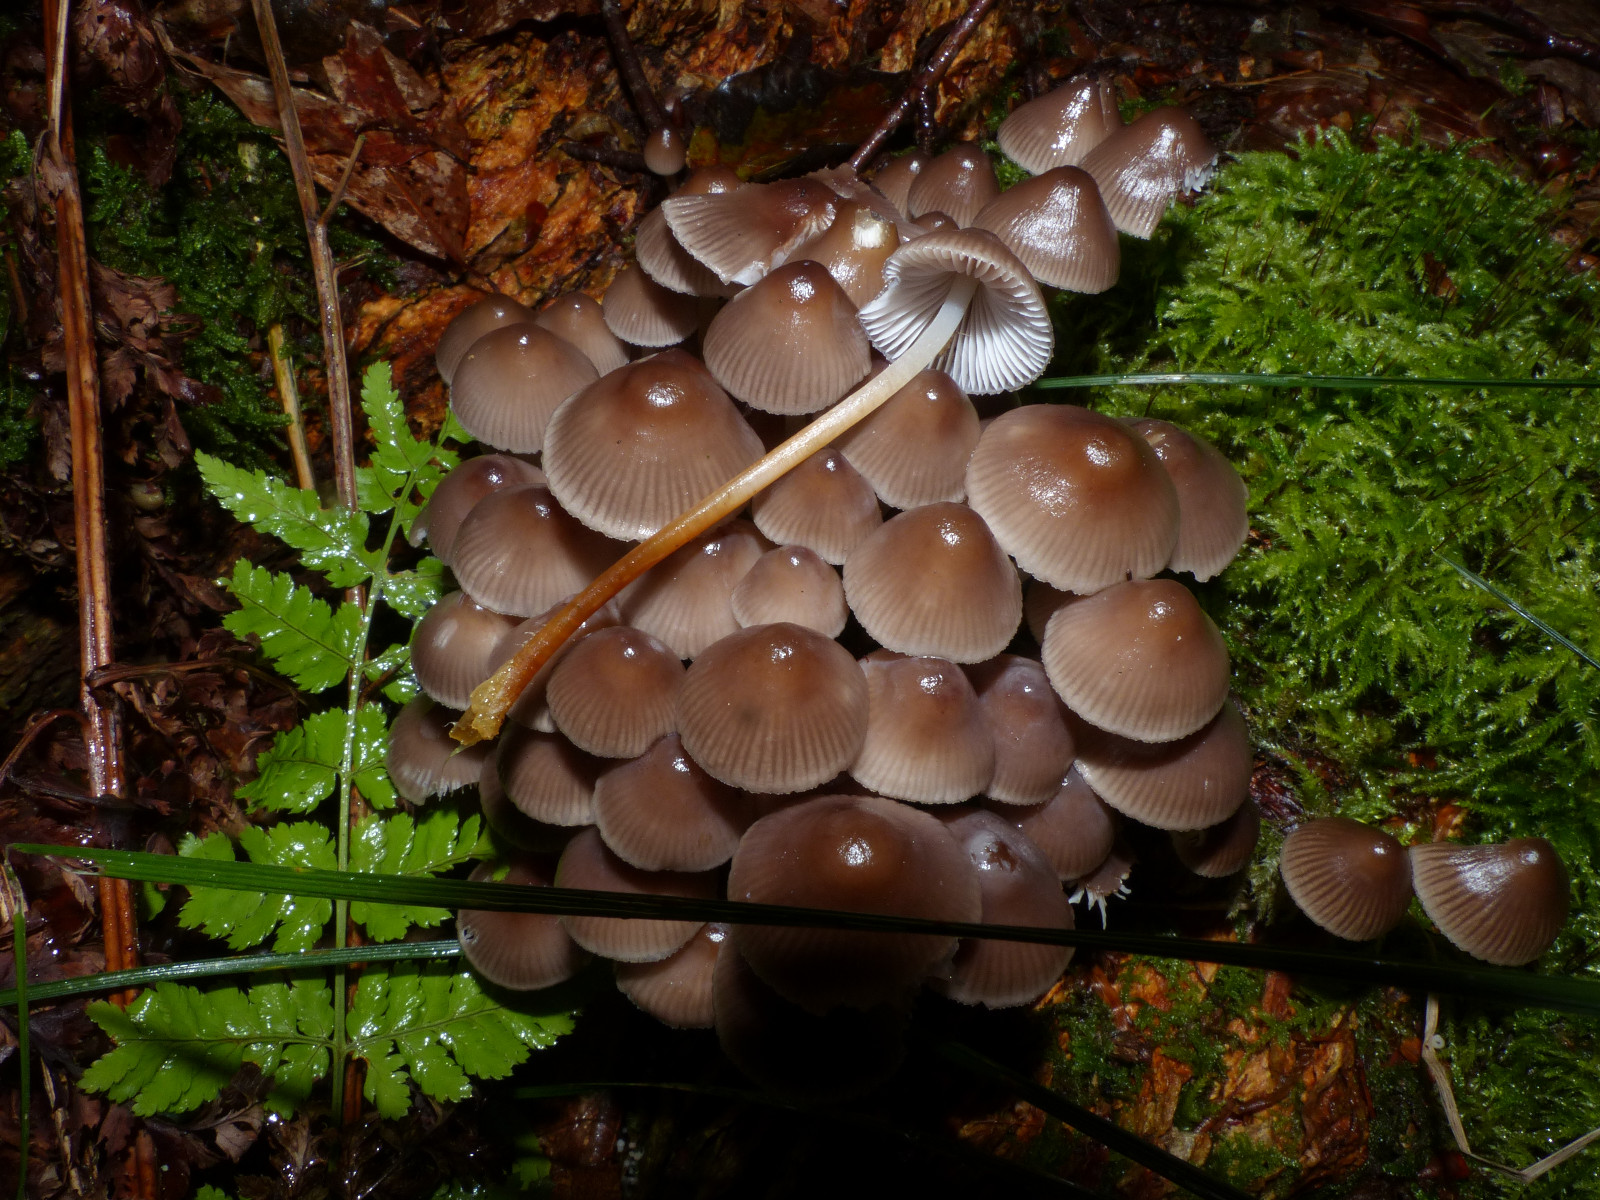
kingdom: Fungi
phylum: Basidiomycota
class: Agaricomycetes
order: Agaricales
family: Mycenaceae
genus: Mycena
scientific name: Mycena inclinata
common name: nikkende huesvamp
